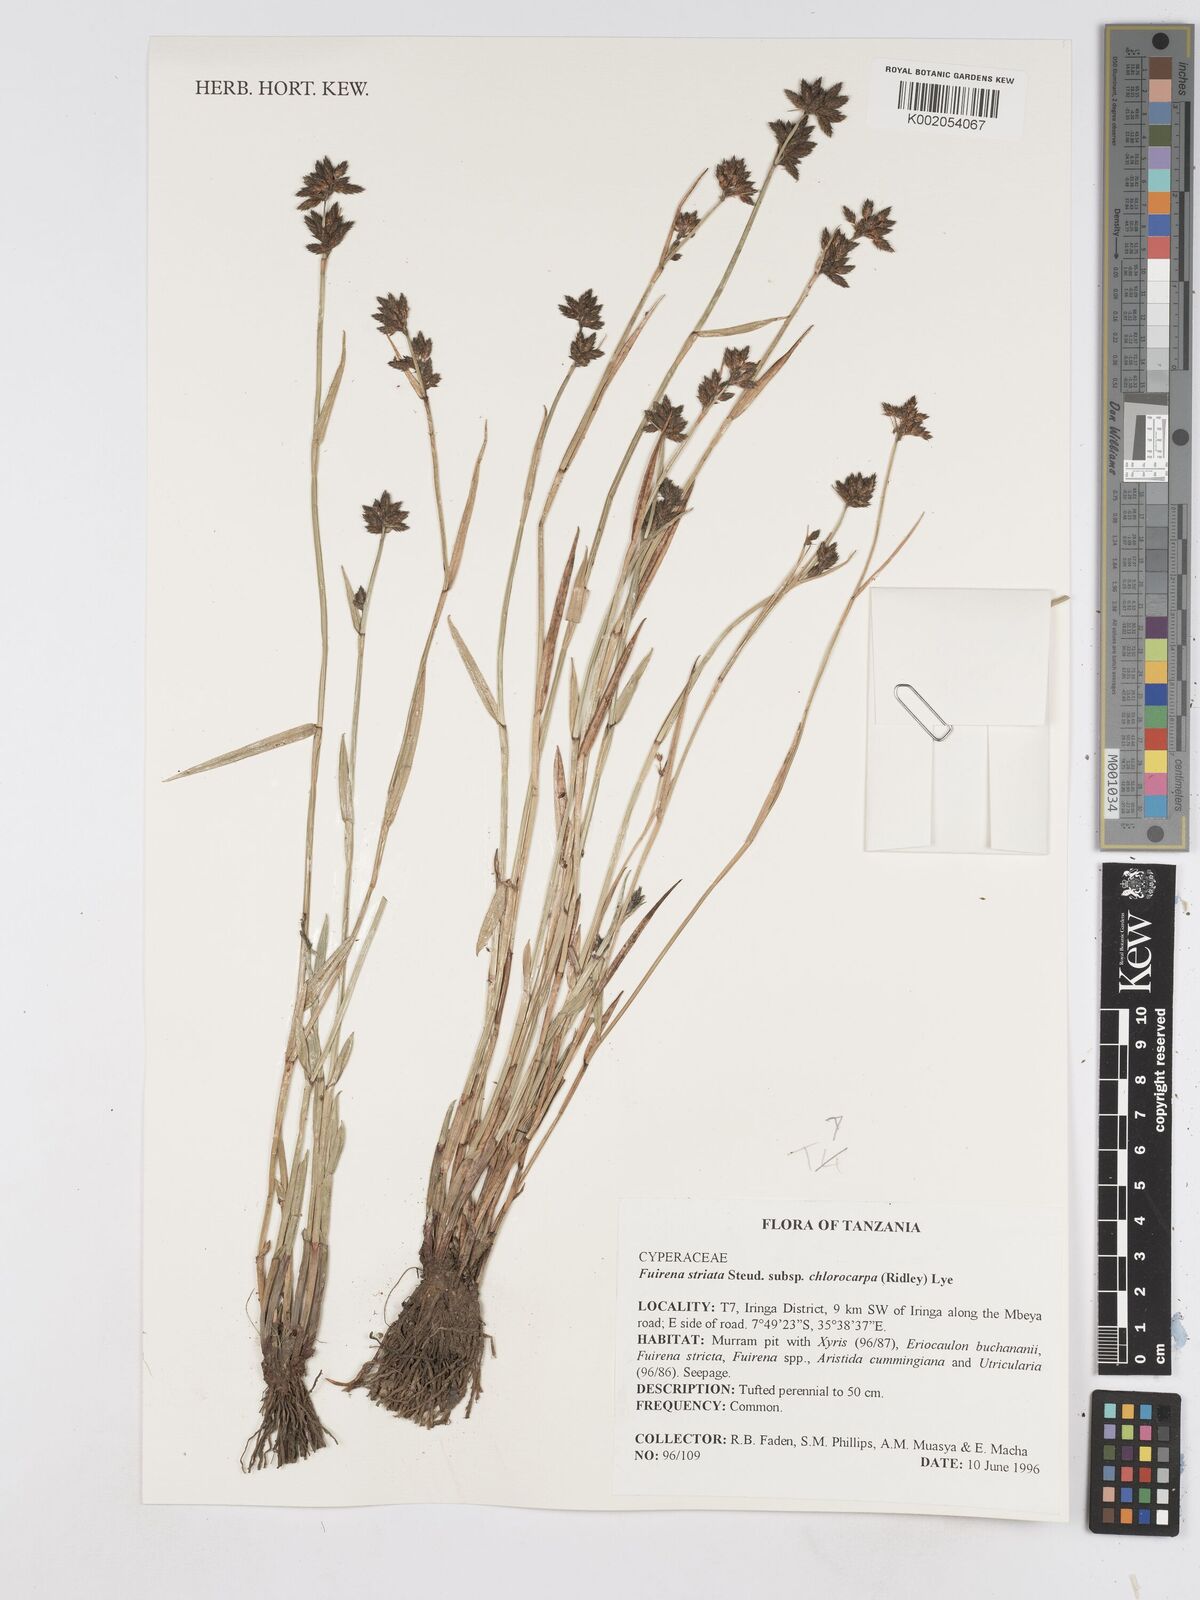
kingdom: Plantae
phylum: Tracheophyta
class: Liliopsida
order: Poales
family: Cyperaceae
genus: Fuirena
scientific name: Fuirena stricta
